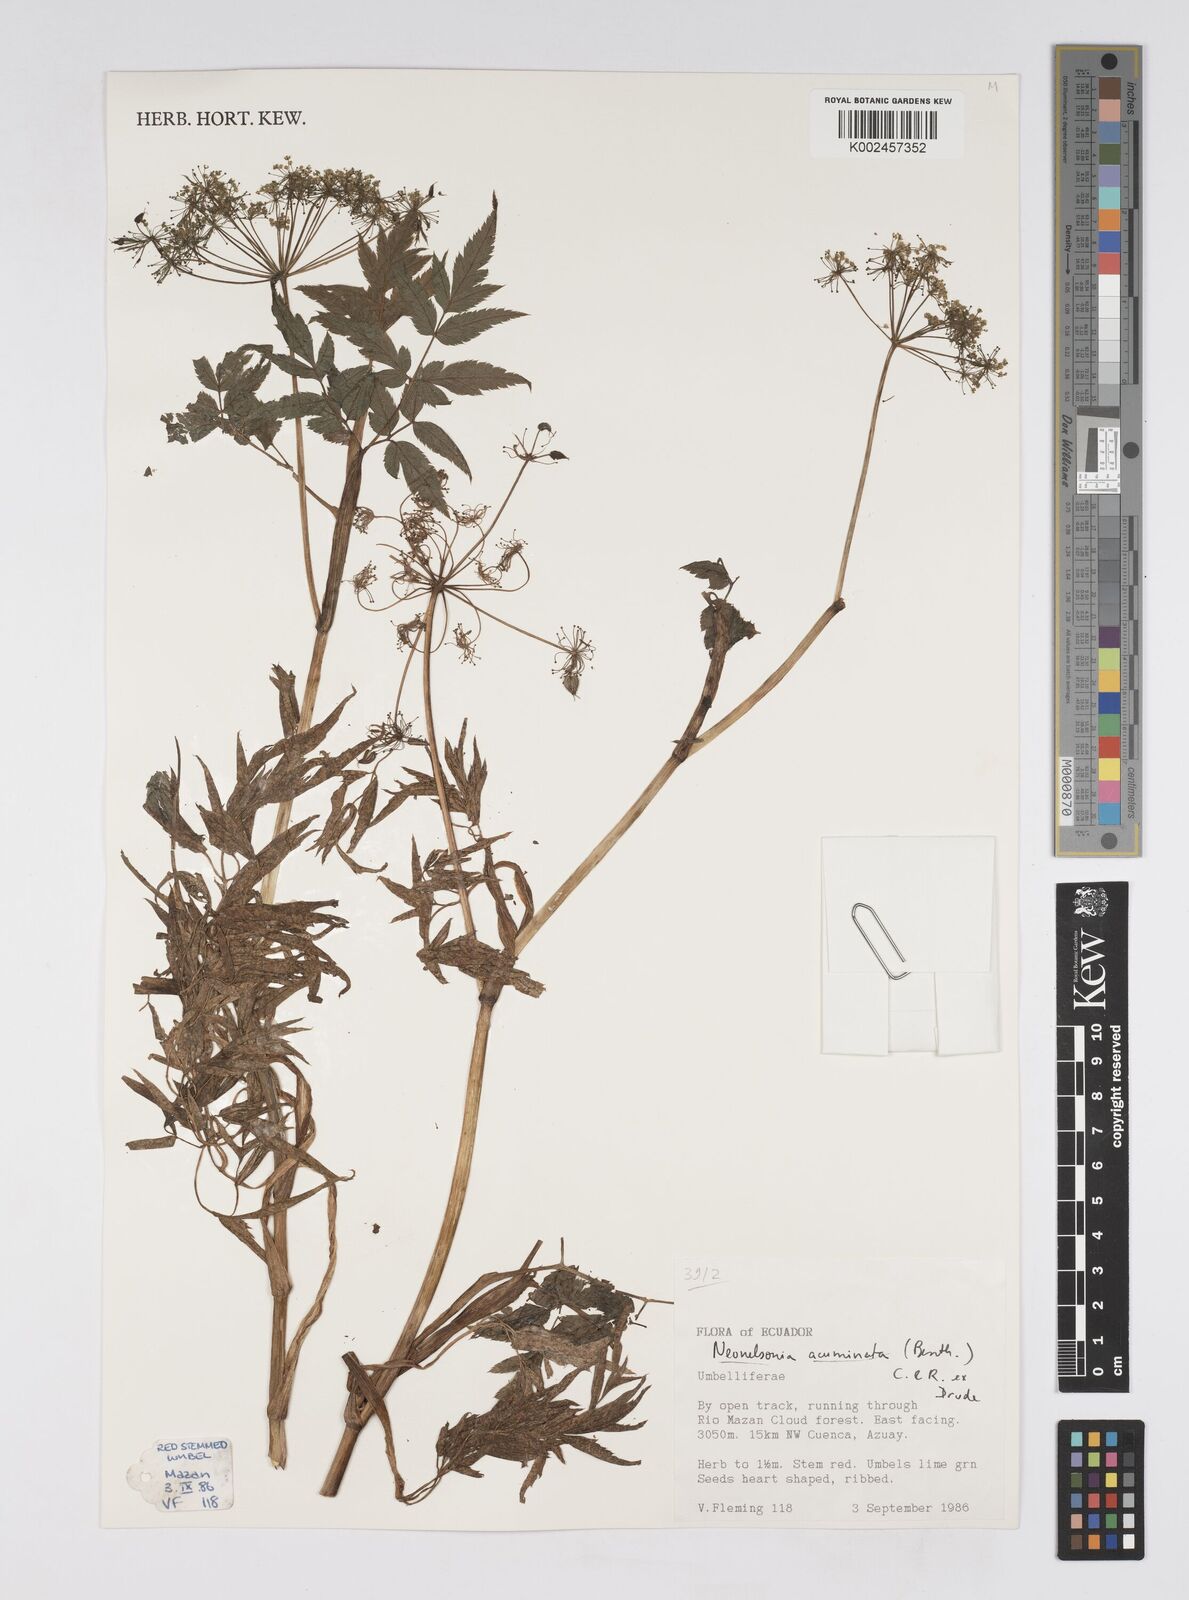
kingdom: Plantae
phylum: Tracheophyta
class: Magnoliopsida
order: Apiales
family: Apiaceae
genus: Neonelsonia
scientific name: Neonelsonia acuminata
